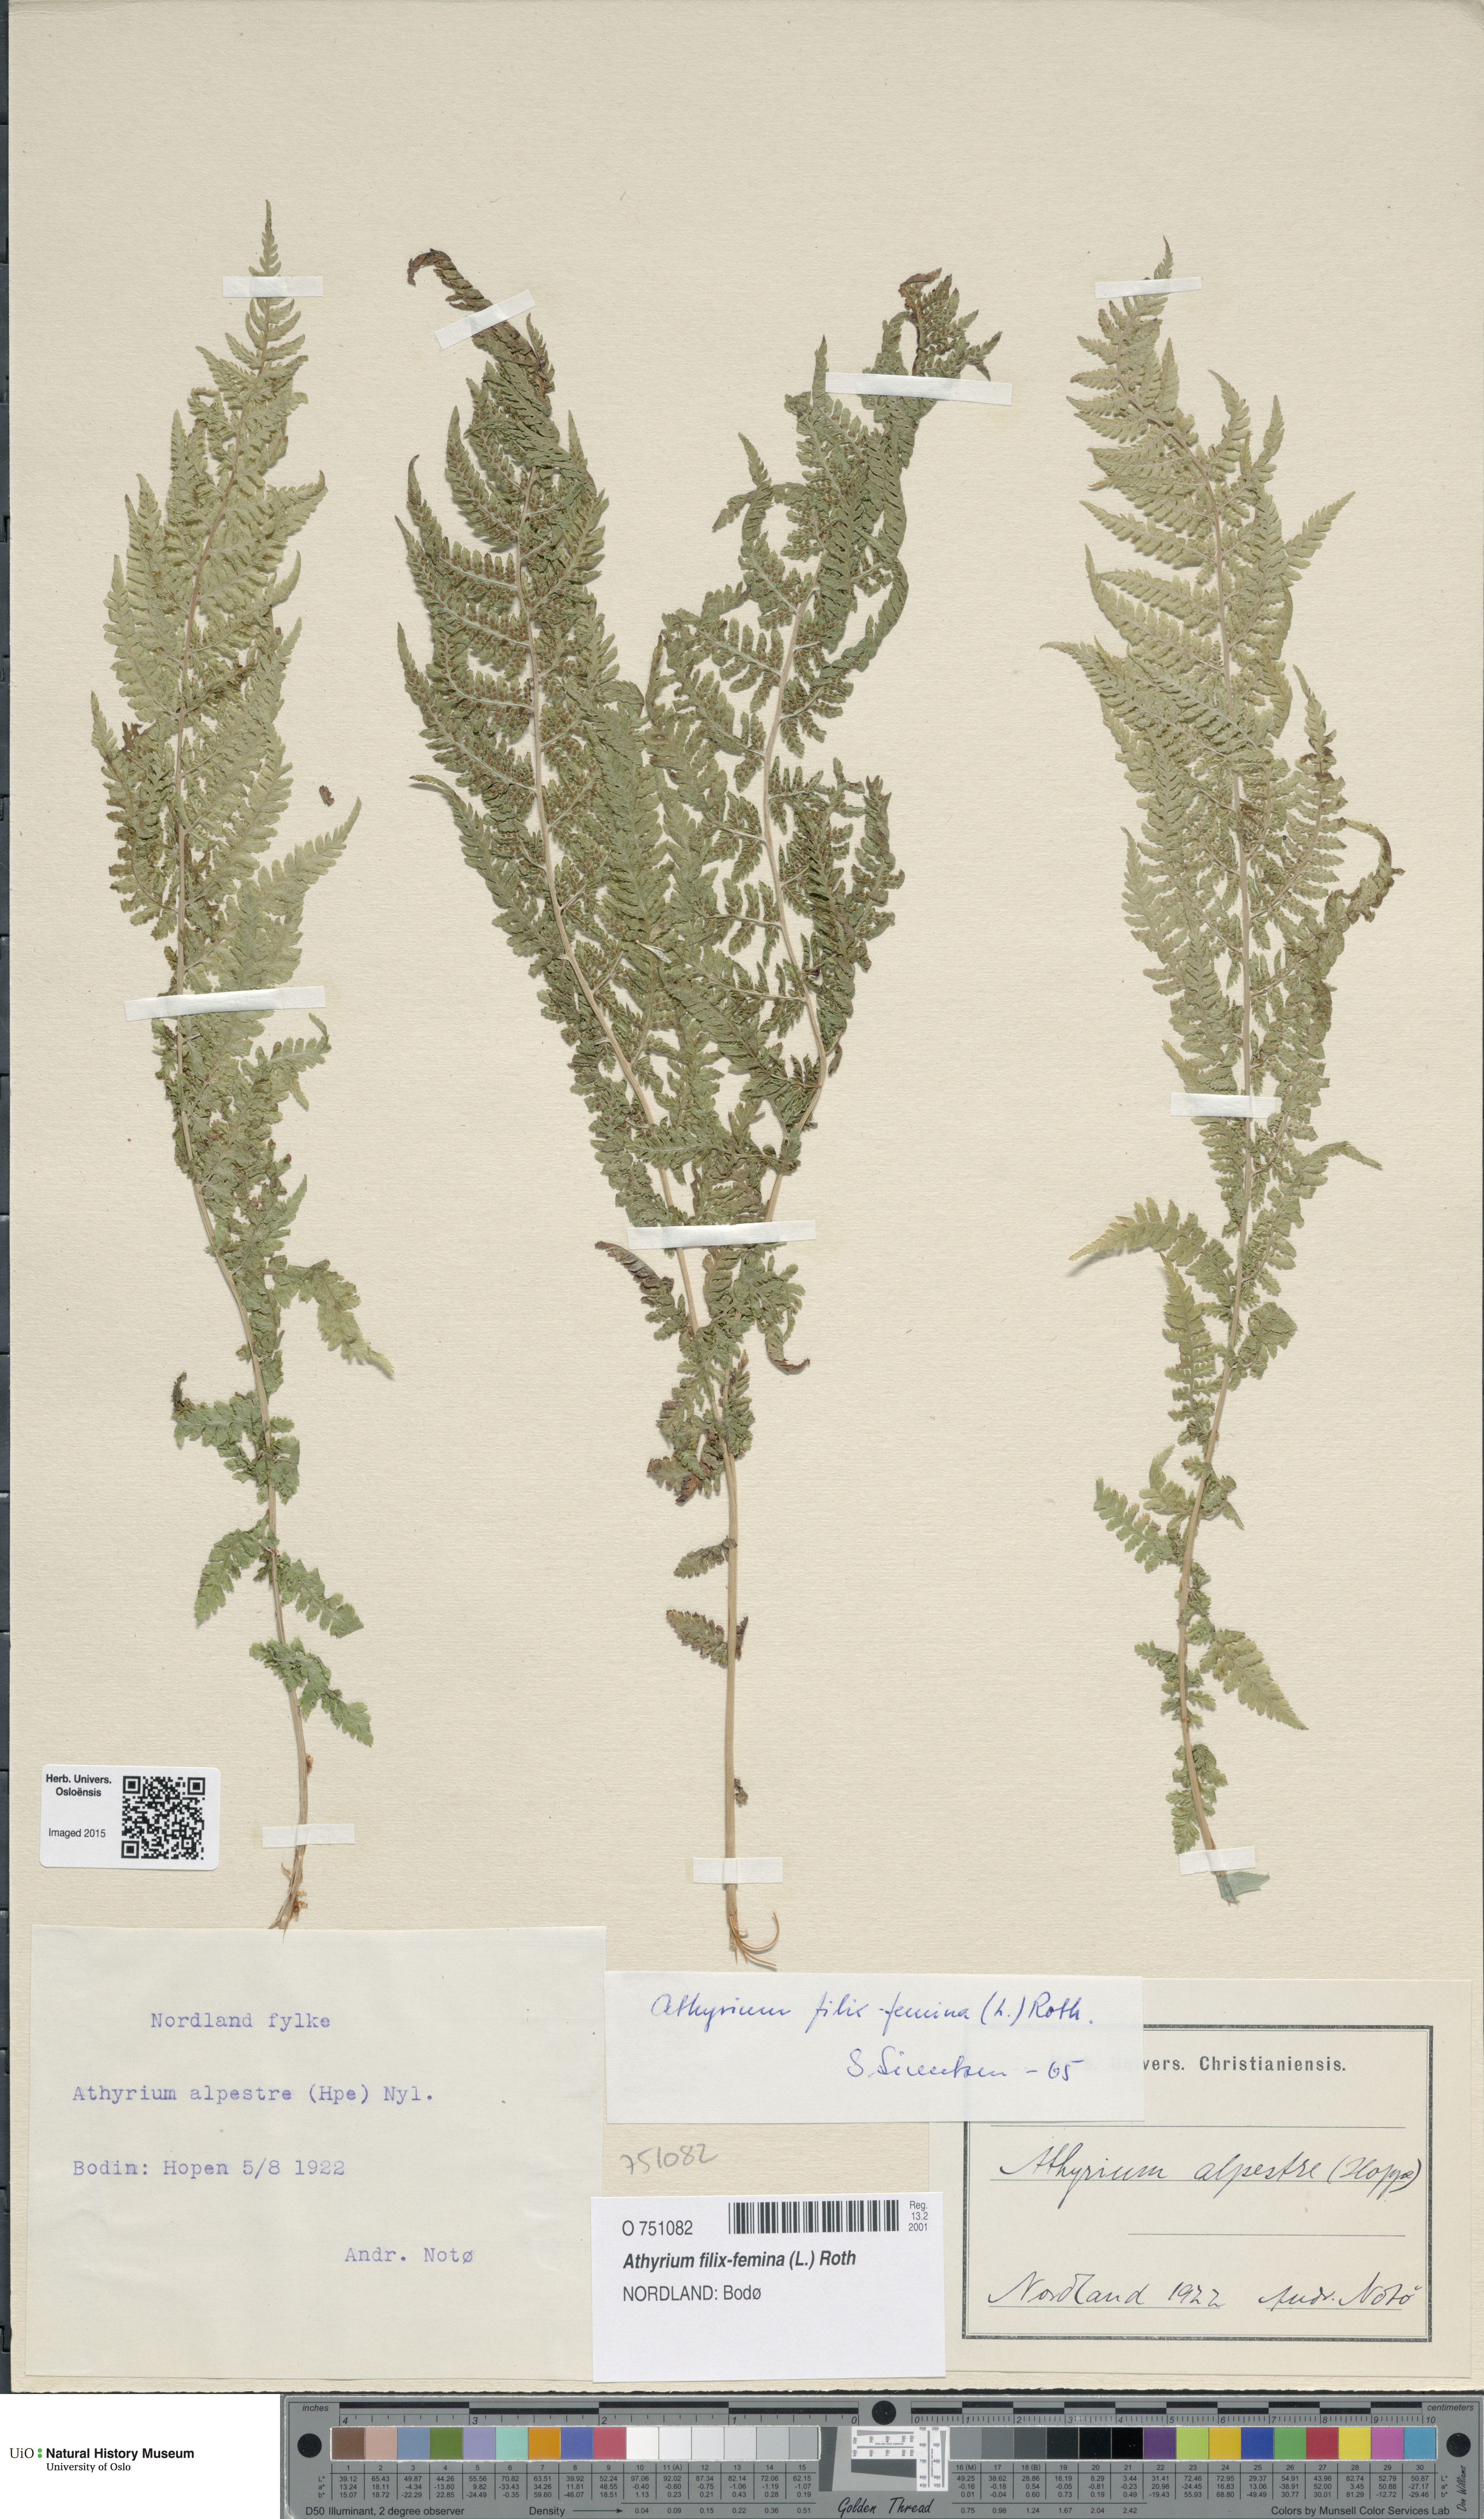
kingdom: Plantae
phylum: Tracheophyta
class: Polypodiopsida
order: Polypodiales
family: Athyriaceae
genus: Athyrium
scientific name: Athyrium filix-femina
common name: Lady fern
